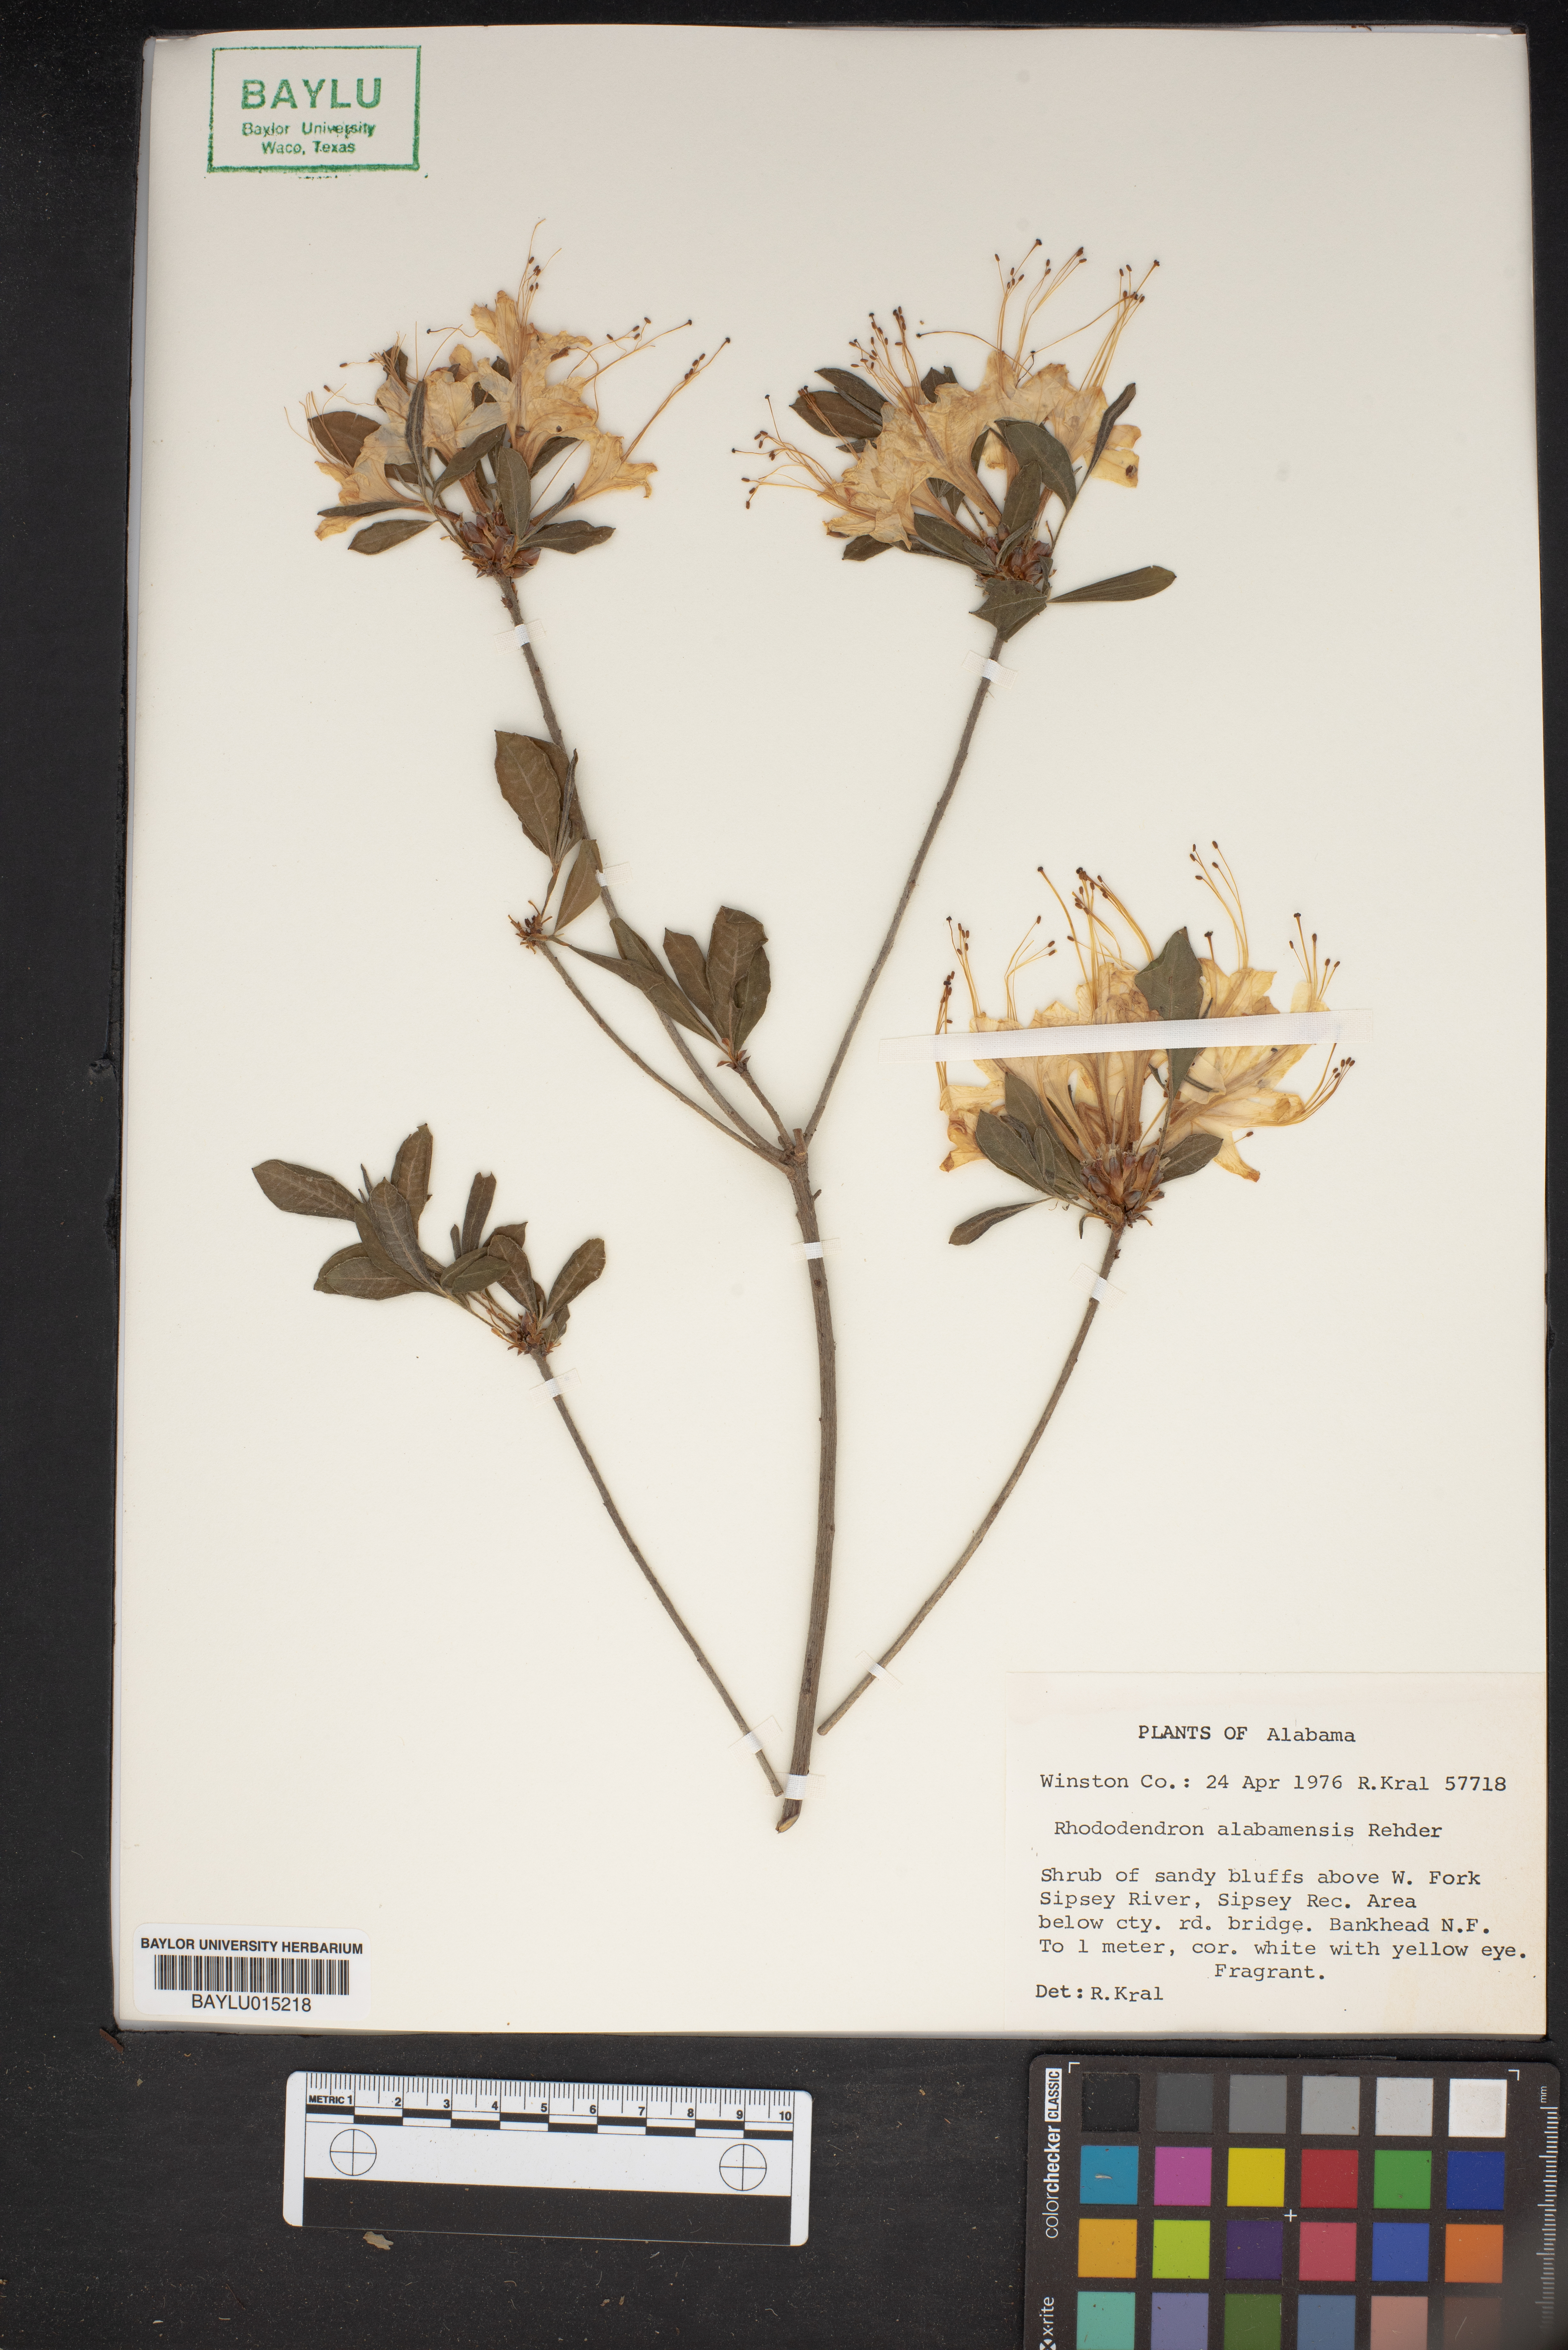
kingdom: Plantae
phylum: Tracheophyta
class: Magnoliopsida
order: Ericales
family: Ericaceae
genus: Rhododendron
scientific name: Rhododendron alabamense
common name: Alabama azalea
